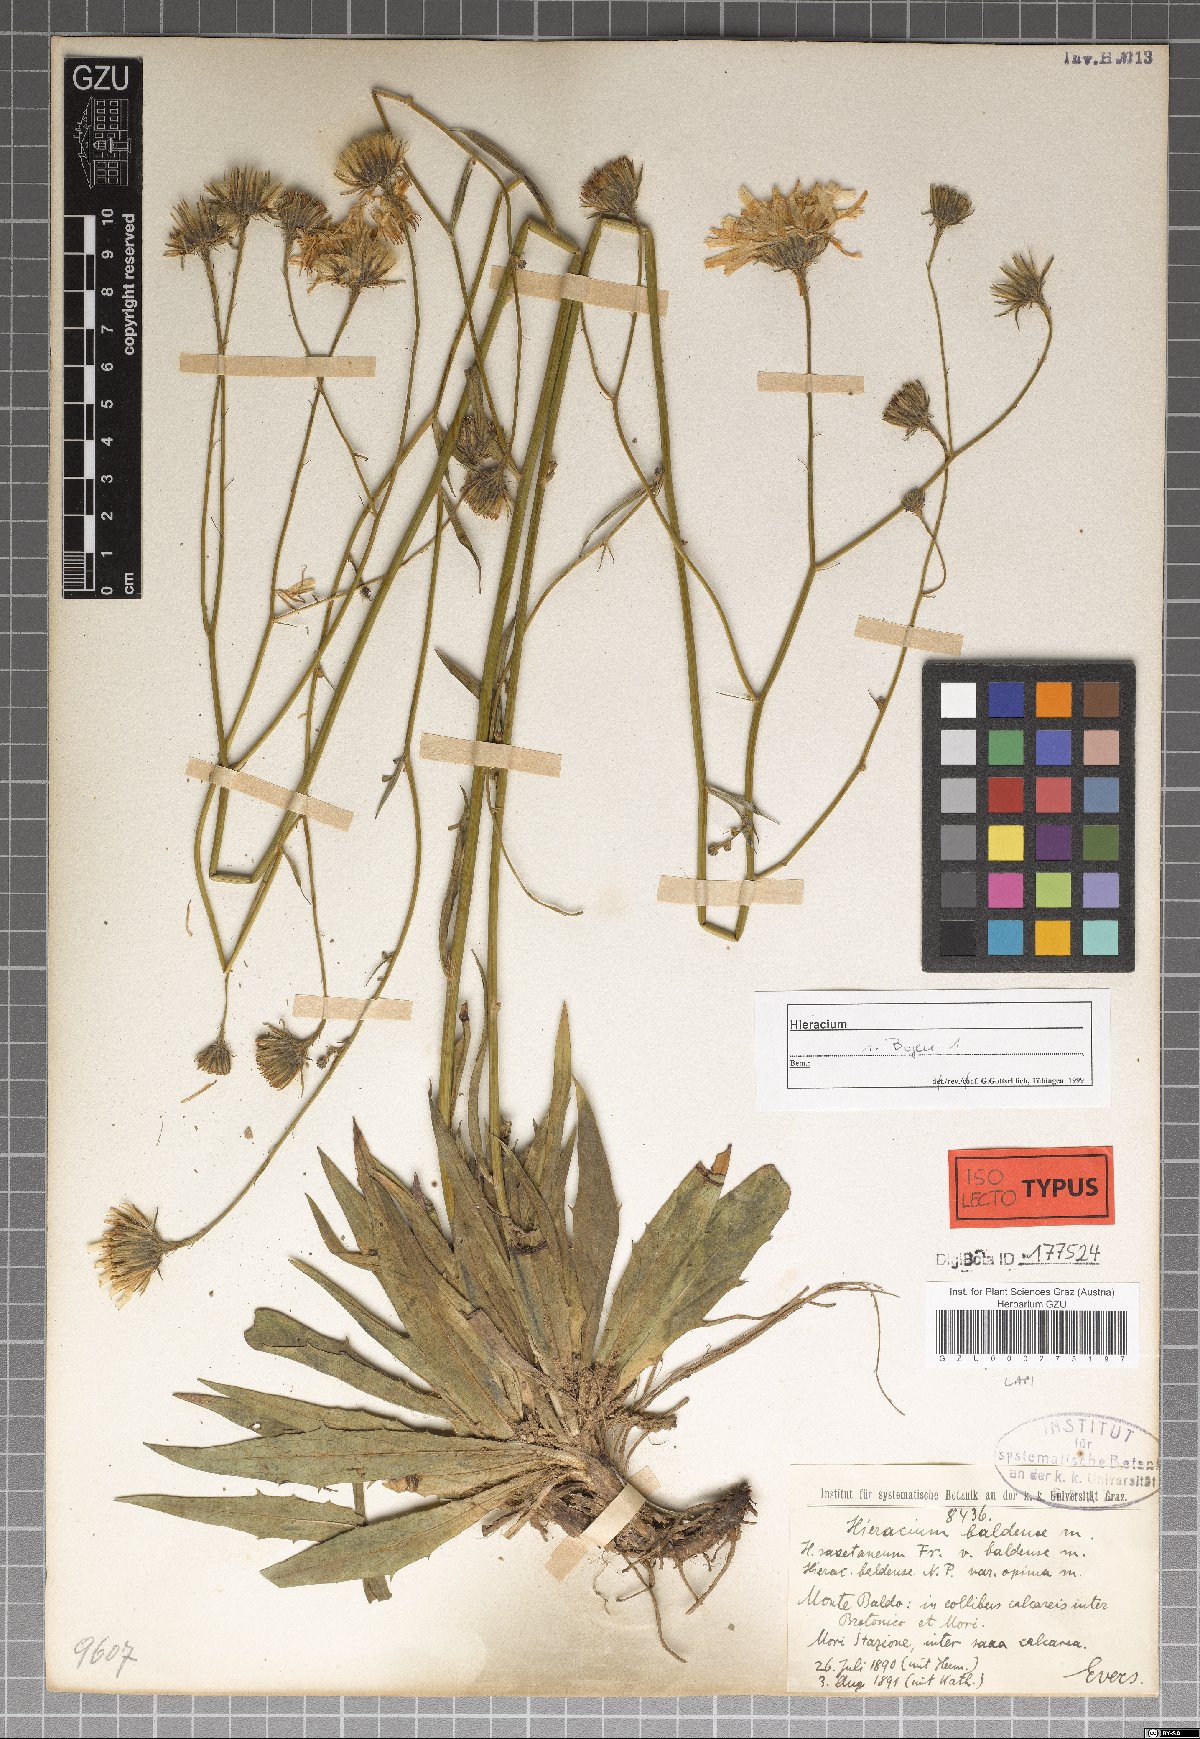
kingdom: Plantae
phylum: Tracheophyta
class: Magnoliopsida
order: Asterales
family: Asteraceae
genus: Hieracium
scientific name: Hieracium calcareum
